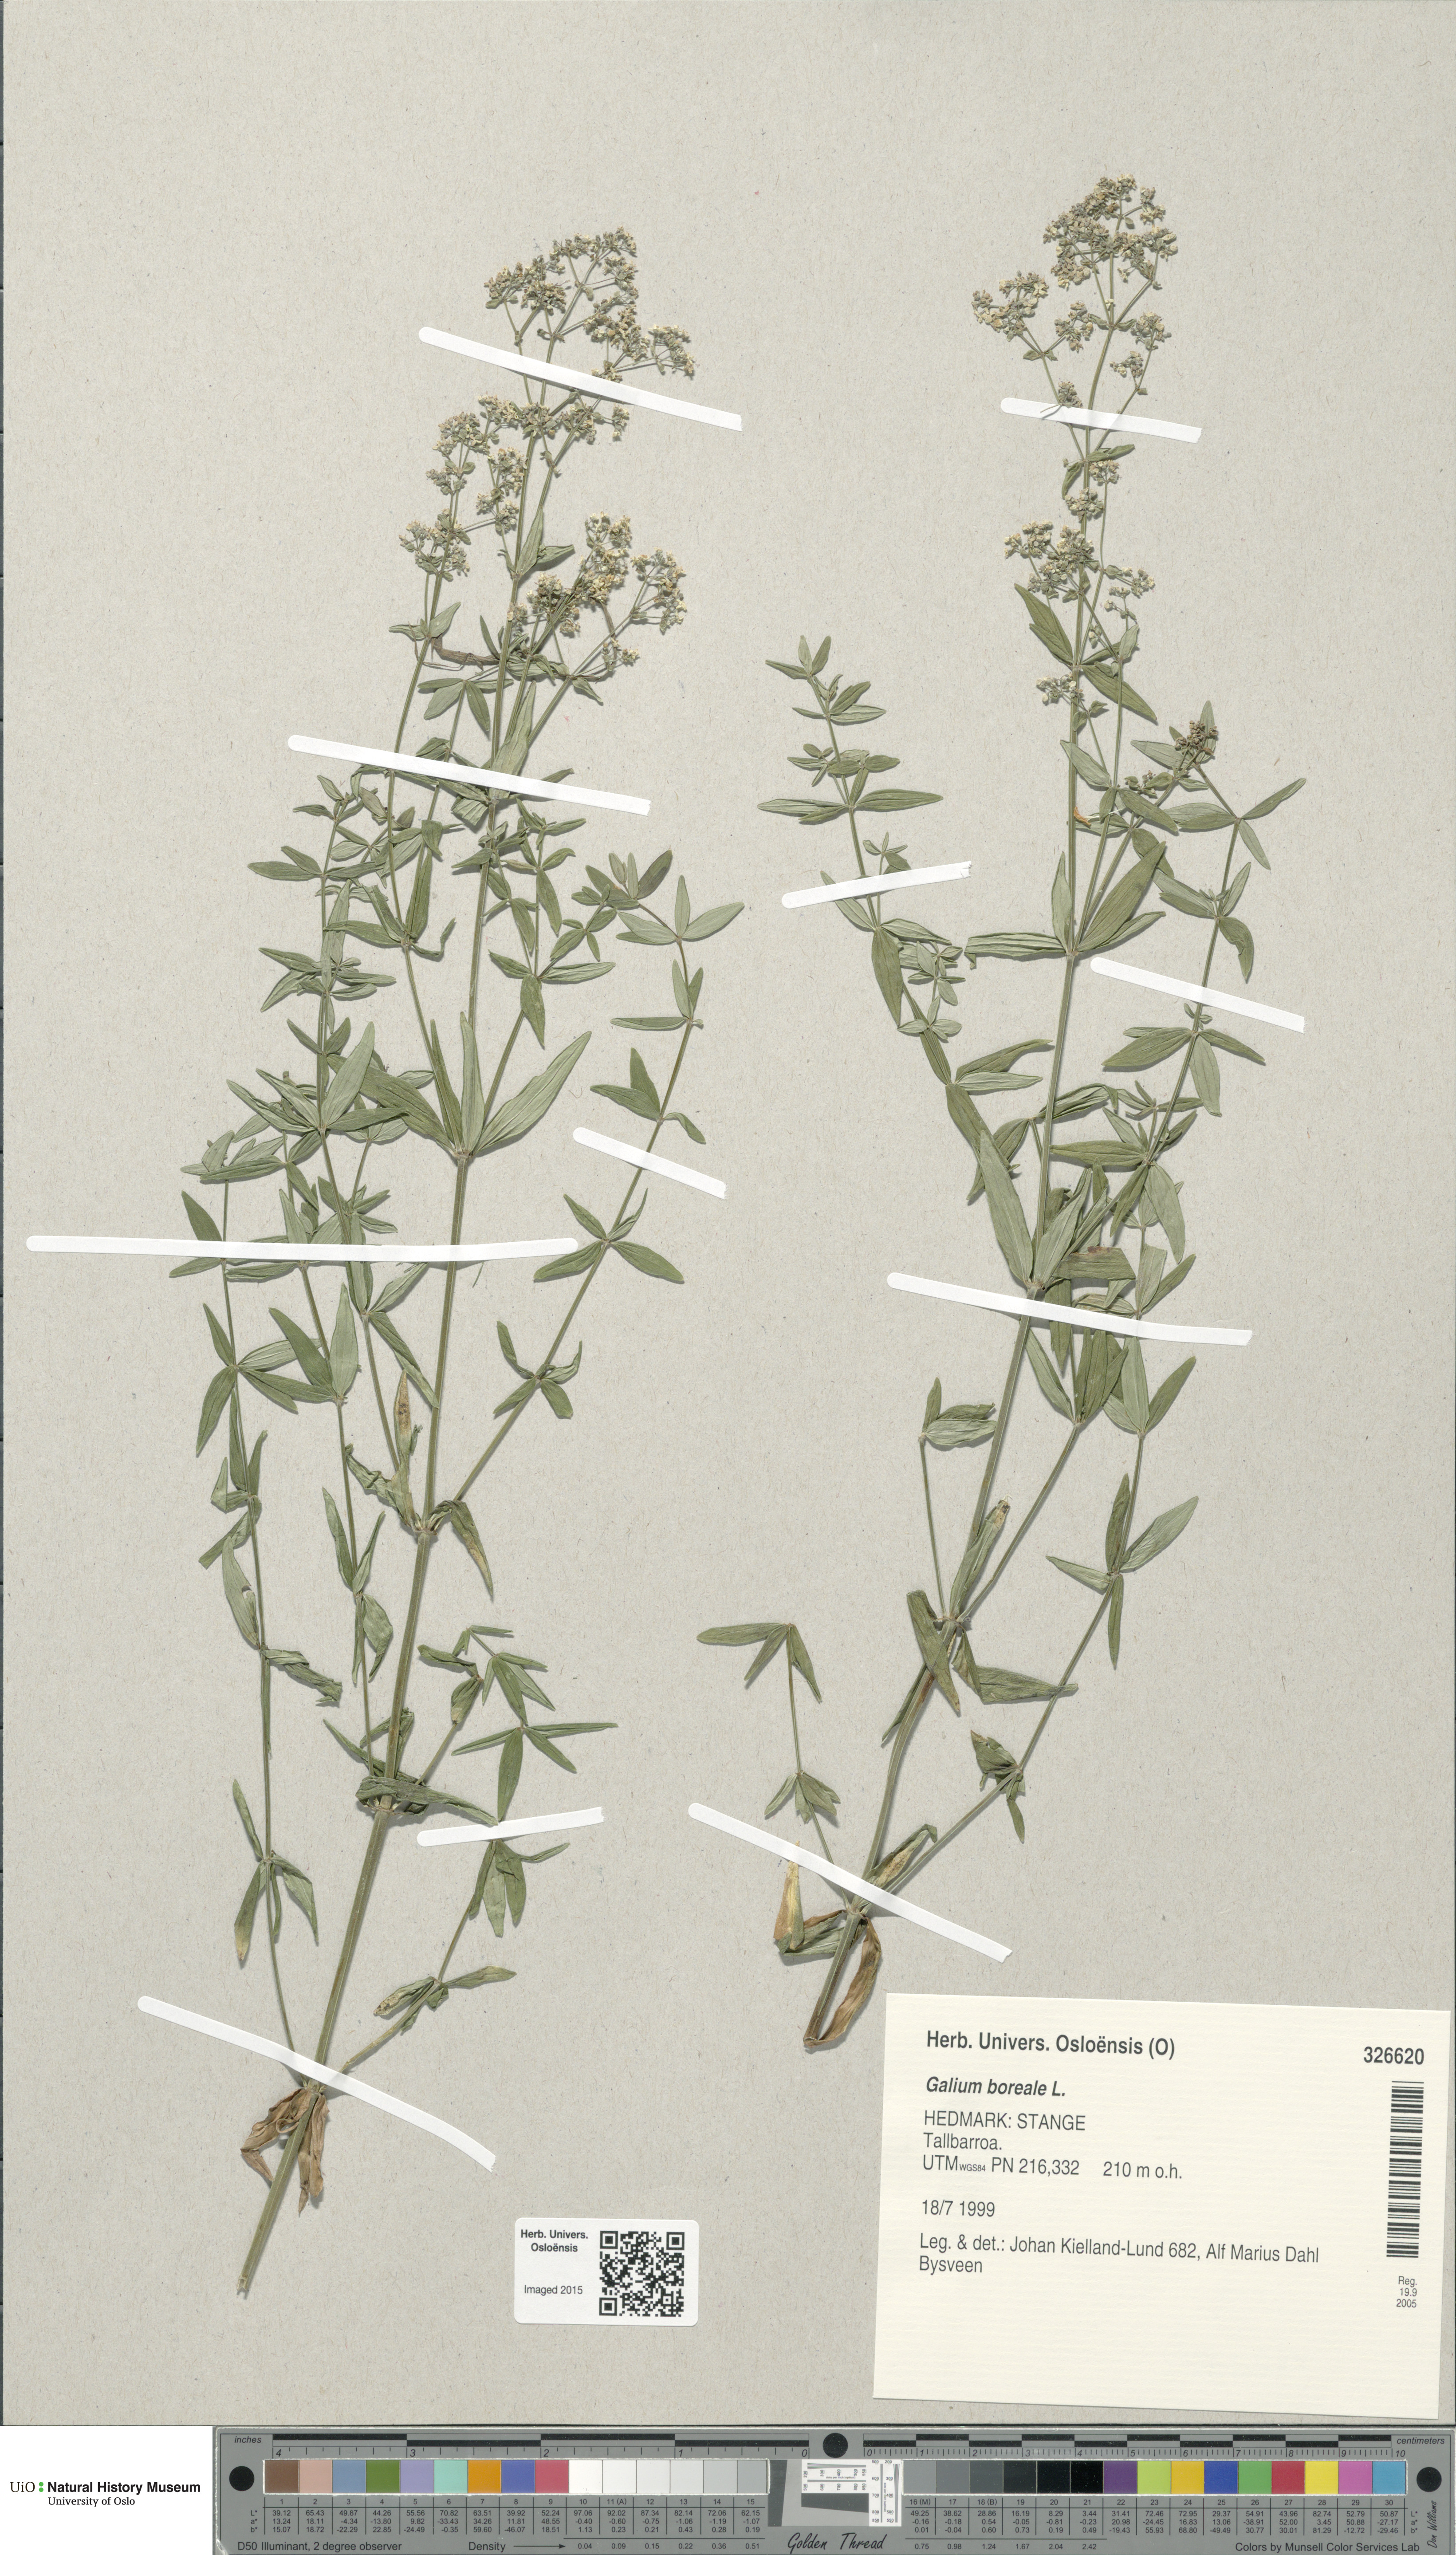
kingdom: Plantae
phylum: Tracheophyta
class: Magnoliopsida
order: Gentianales
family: Rubiaceae
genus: Galium
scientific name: Galium boreale
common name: Northern bedstraw
